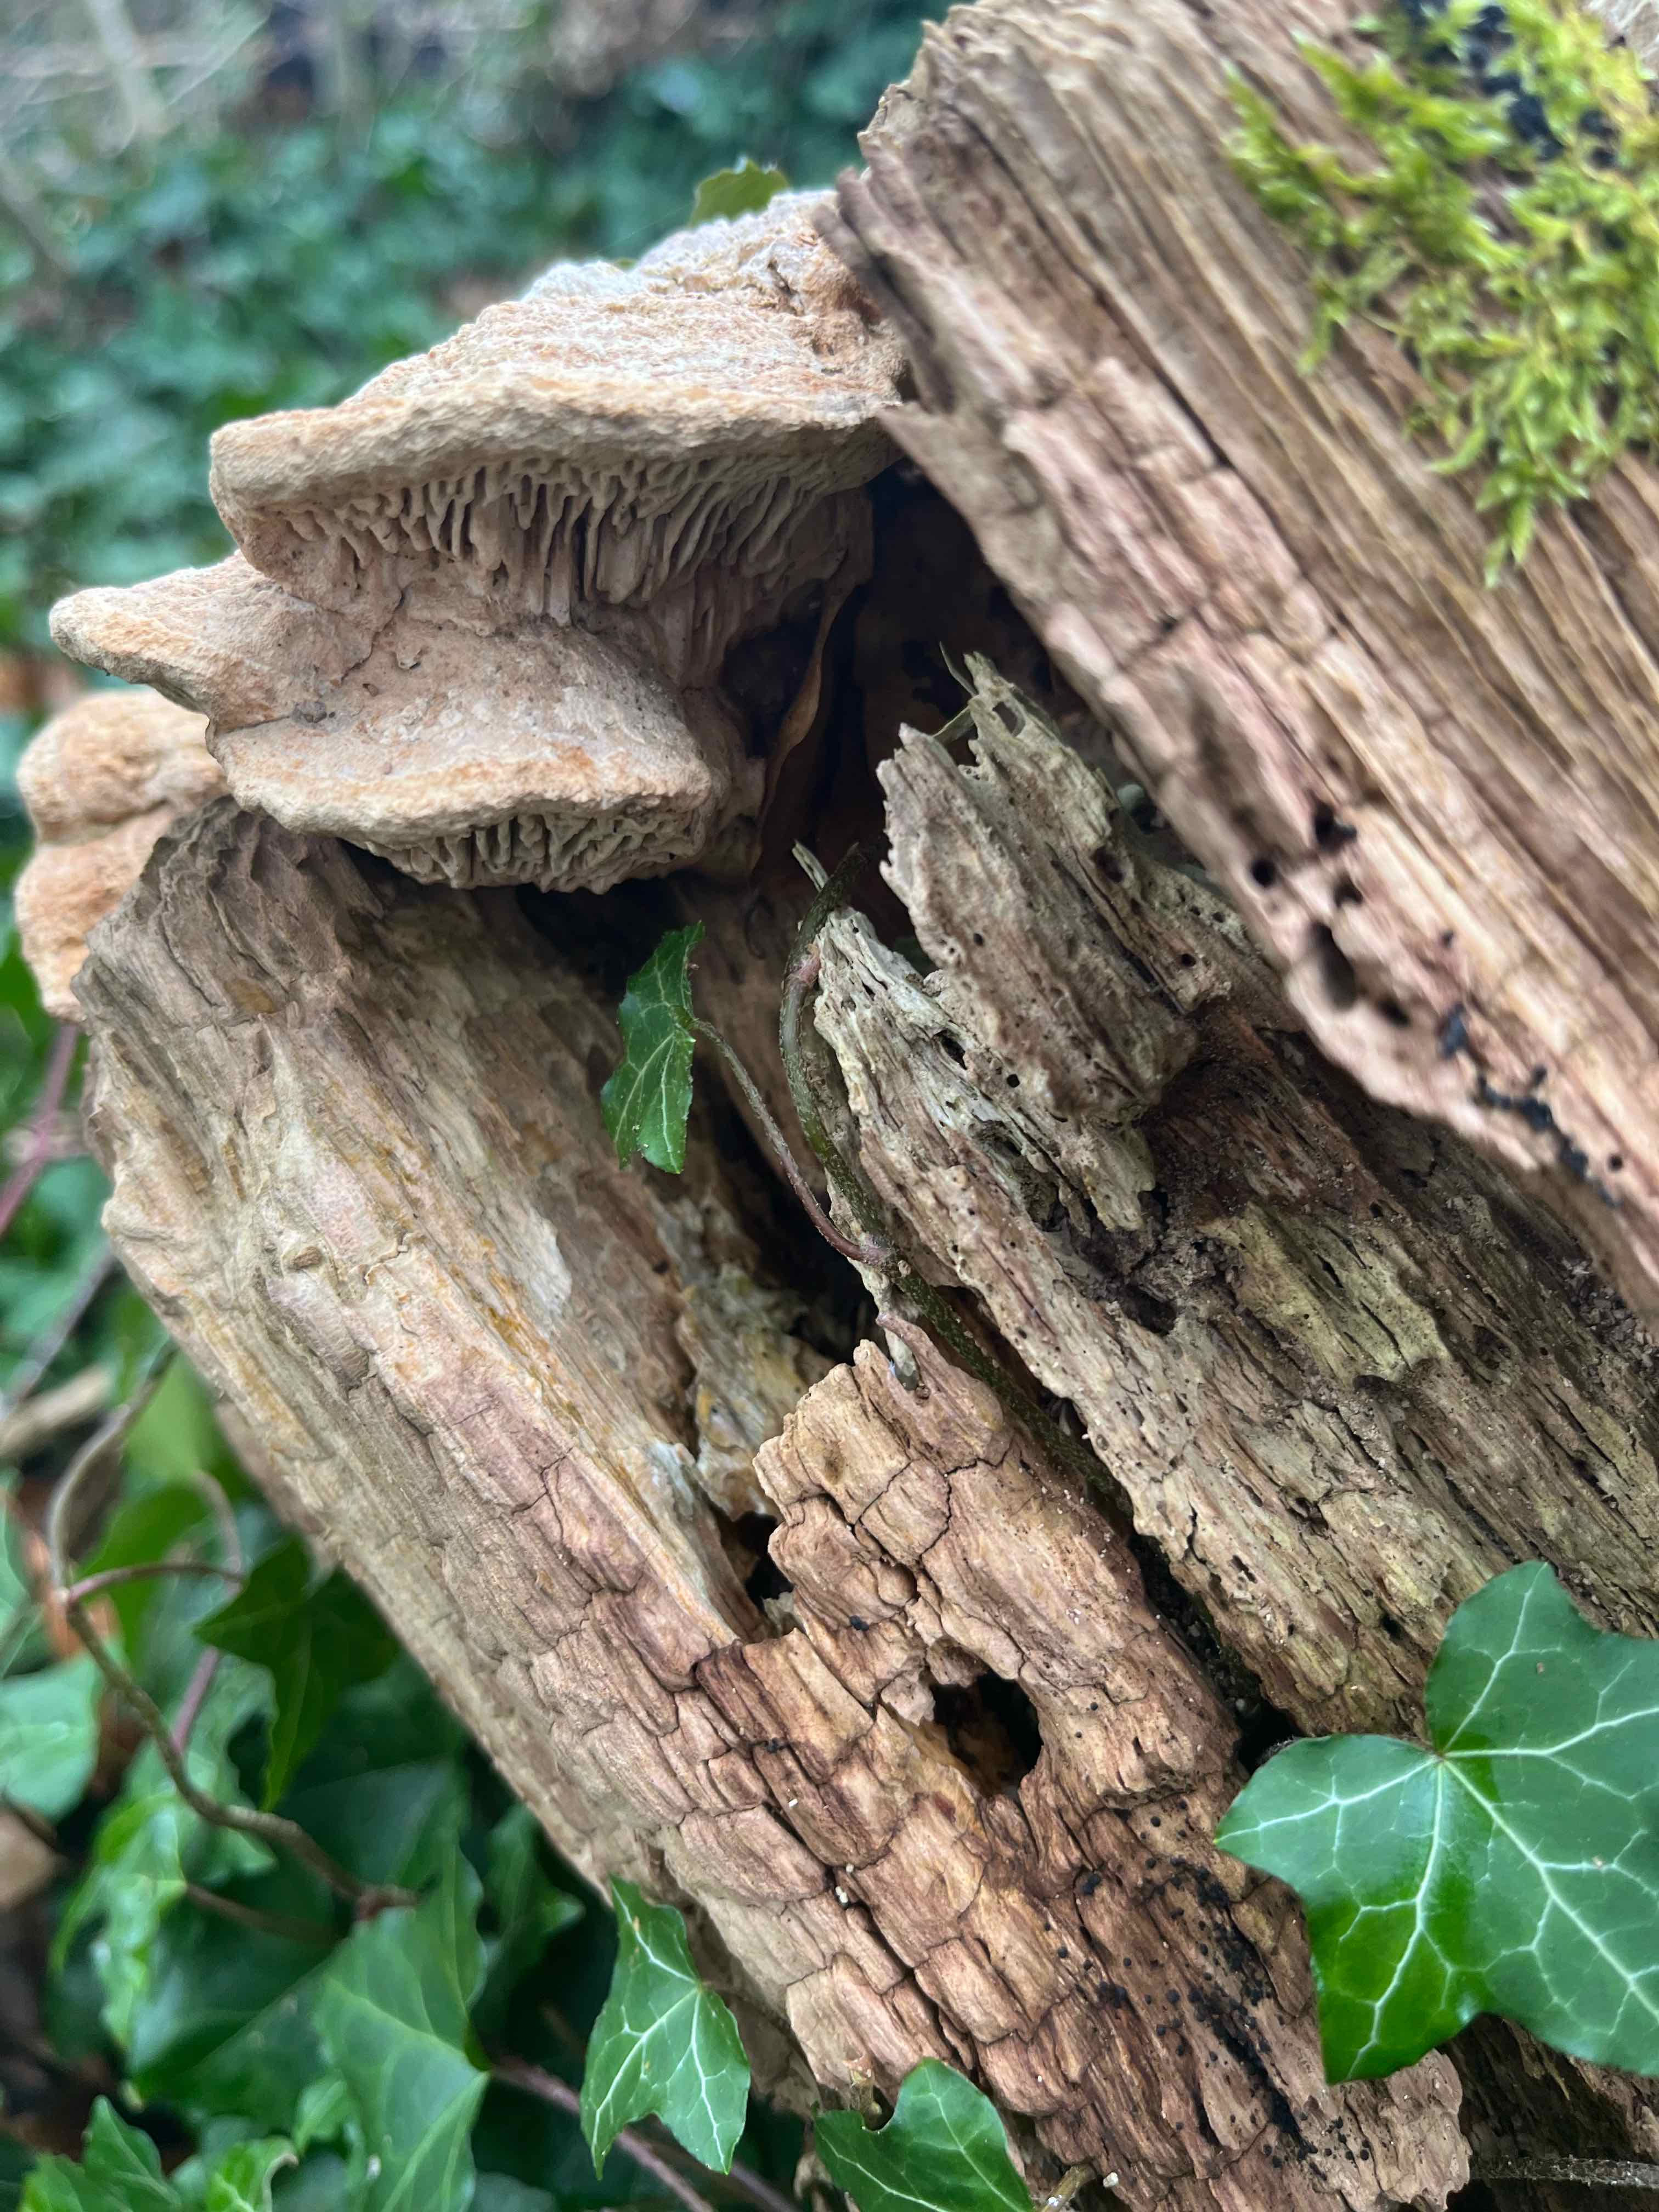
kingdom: Fungi
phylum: Basidiomycota
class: Agaricomycetes
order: Polyporales
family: Fomitopsidaceae
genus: Daedalea
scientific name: Daedalea quercina
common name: ege-labyrintsvamp
